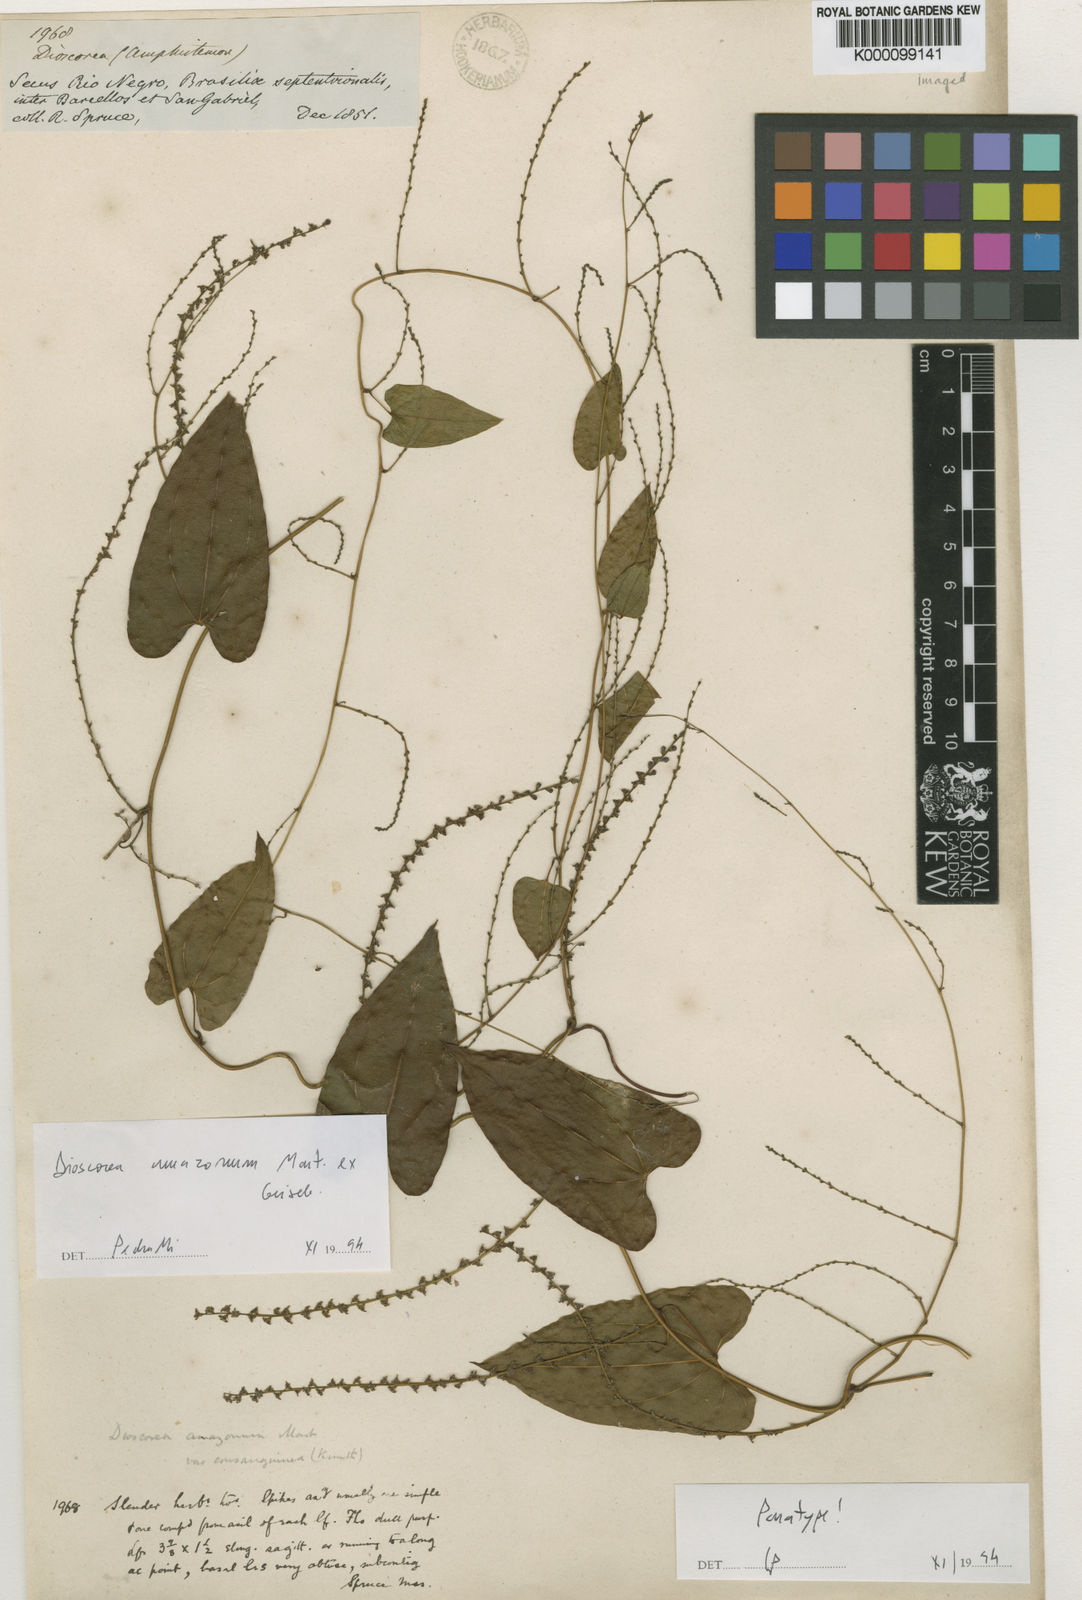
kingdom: Plantae
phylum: Tracheophyta
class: Liliopsida
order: Dioscoreales
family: Dioscoreaceae
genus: Dioscorea
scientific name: Dioscorea amazonum
